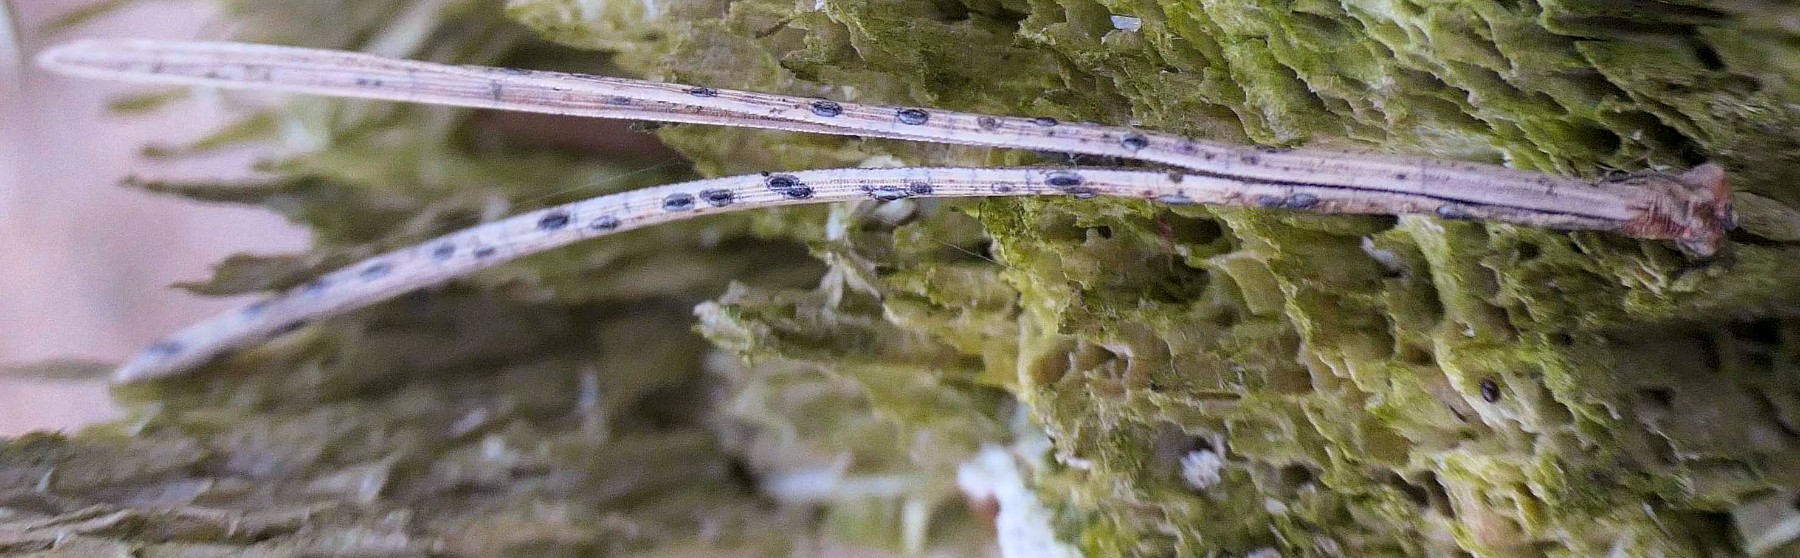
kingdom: Fungi
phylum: Ascomycota
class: Leotiomycetes
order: Rhytismatales
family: Rhytismataceae
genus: Lophodermium
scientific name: Lophodermium pinastri
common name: fyrre-fureplet
